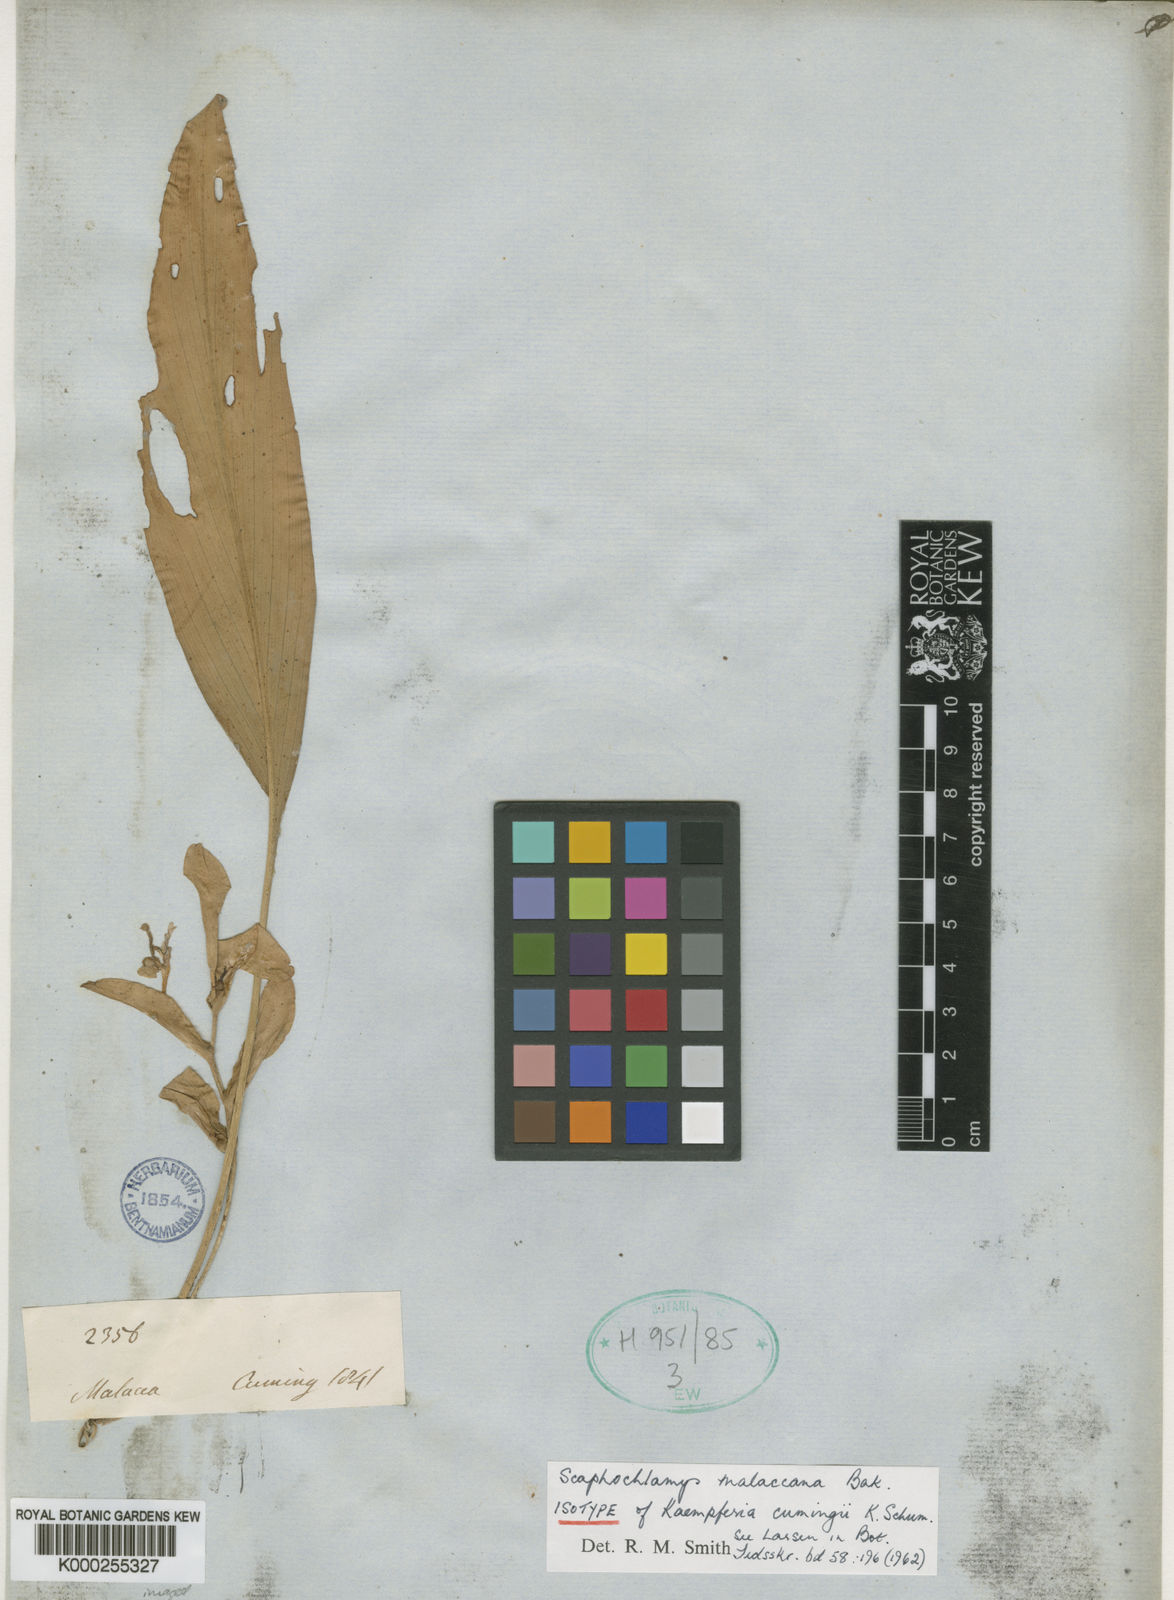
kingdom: Plantae
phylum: Tracheophyta
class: Liliopsida
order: Zingiberales
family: Zingiberaceae
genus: Scaphochlamys
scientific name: Scaphochlamys malaccana
